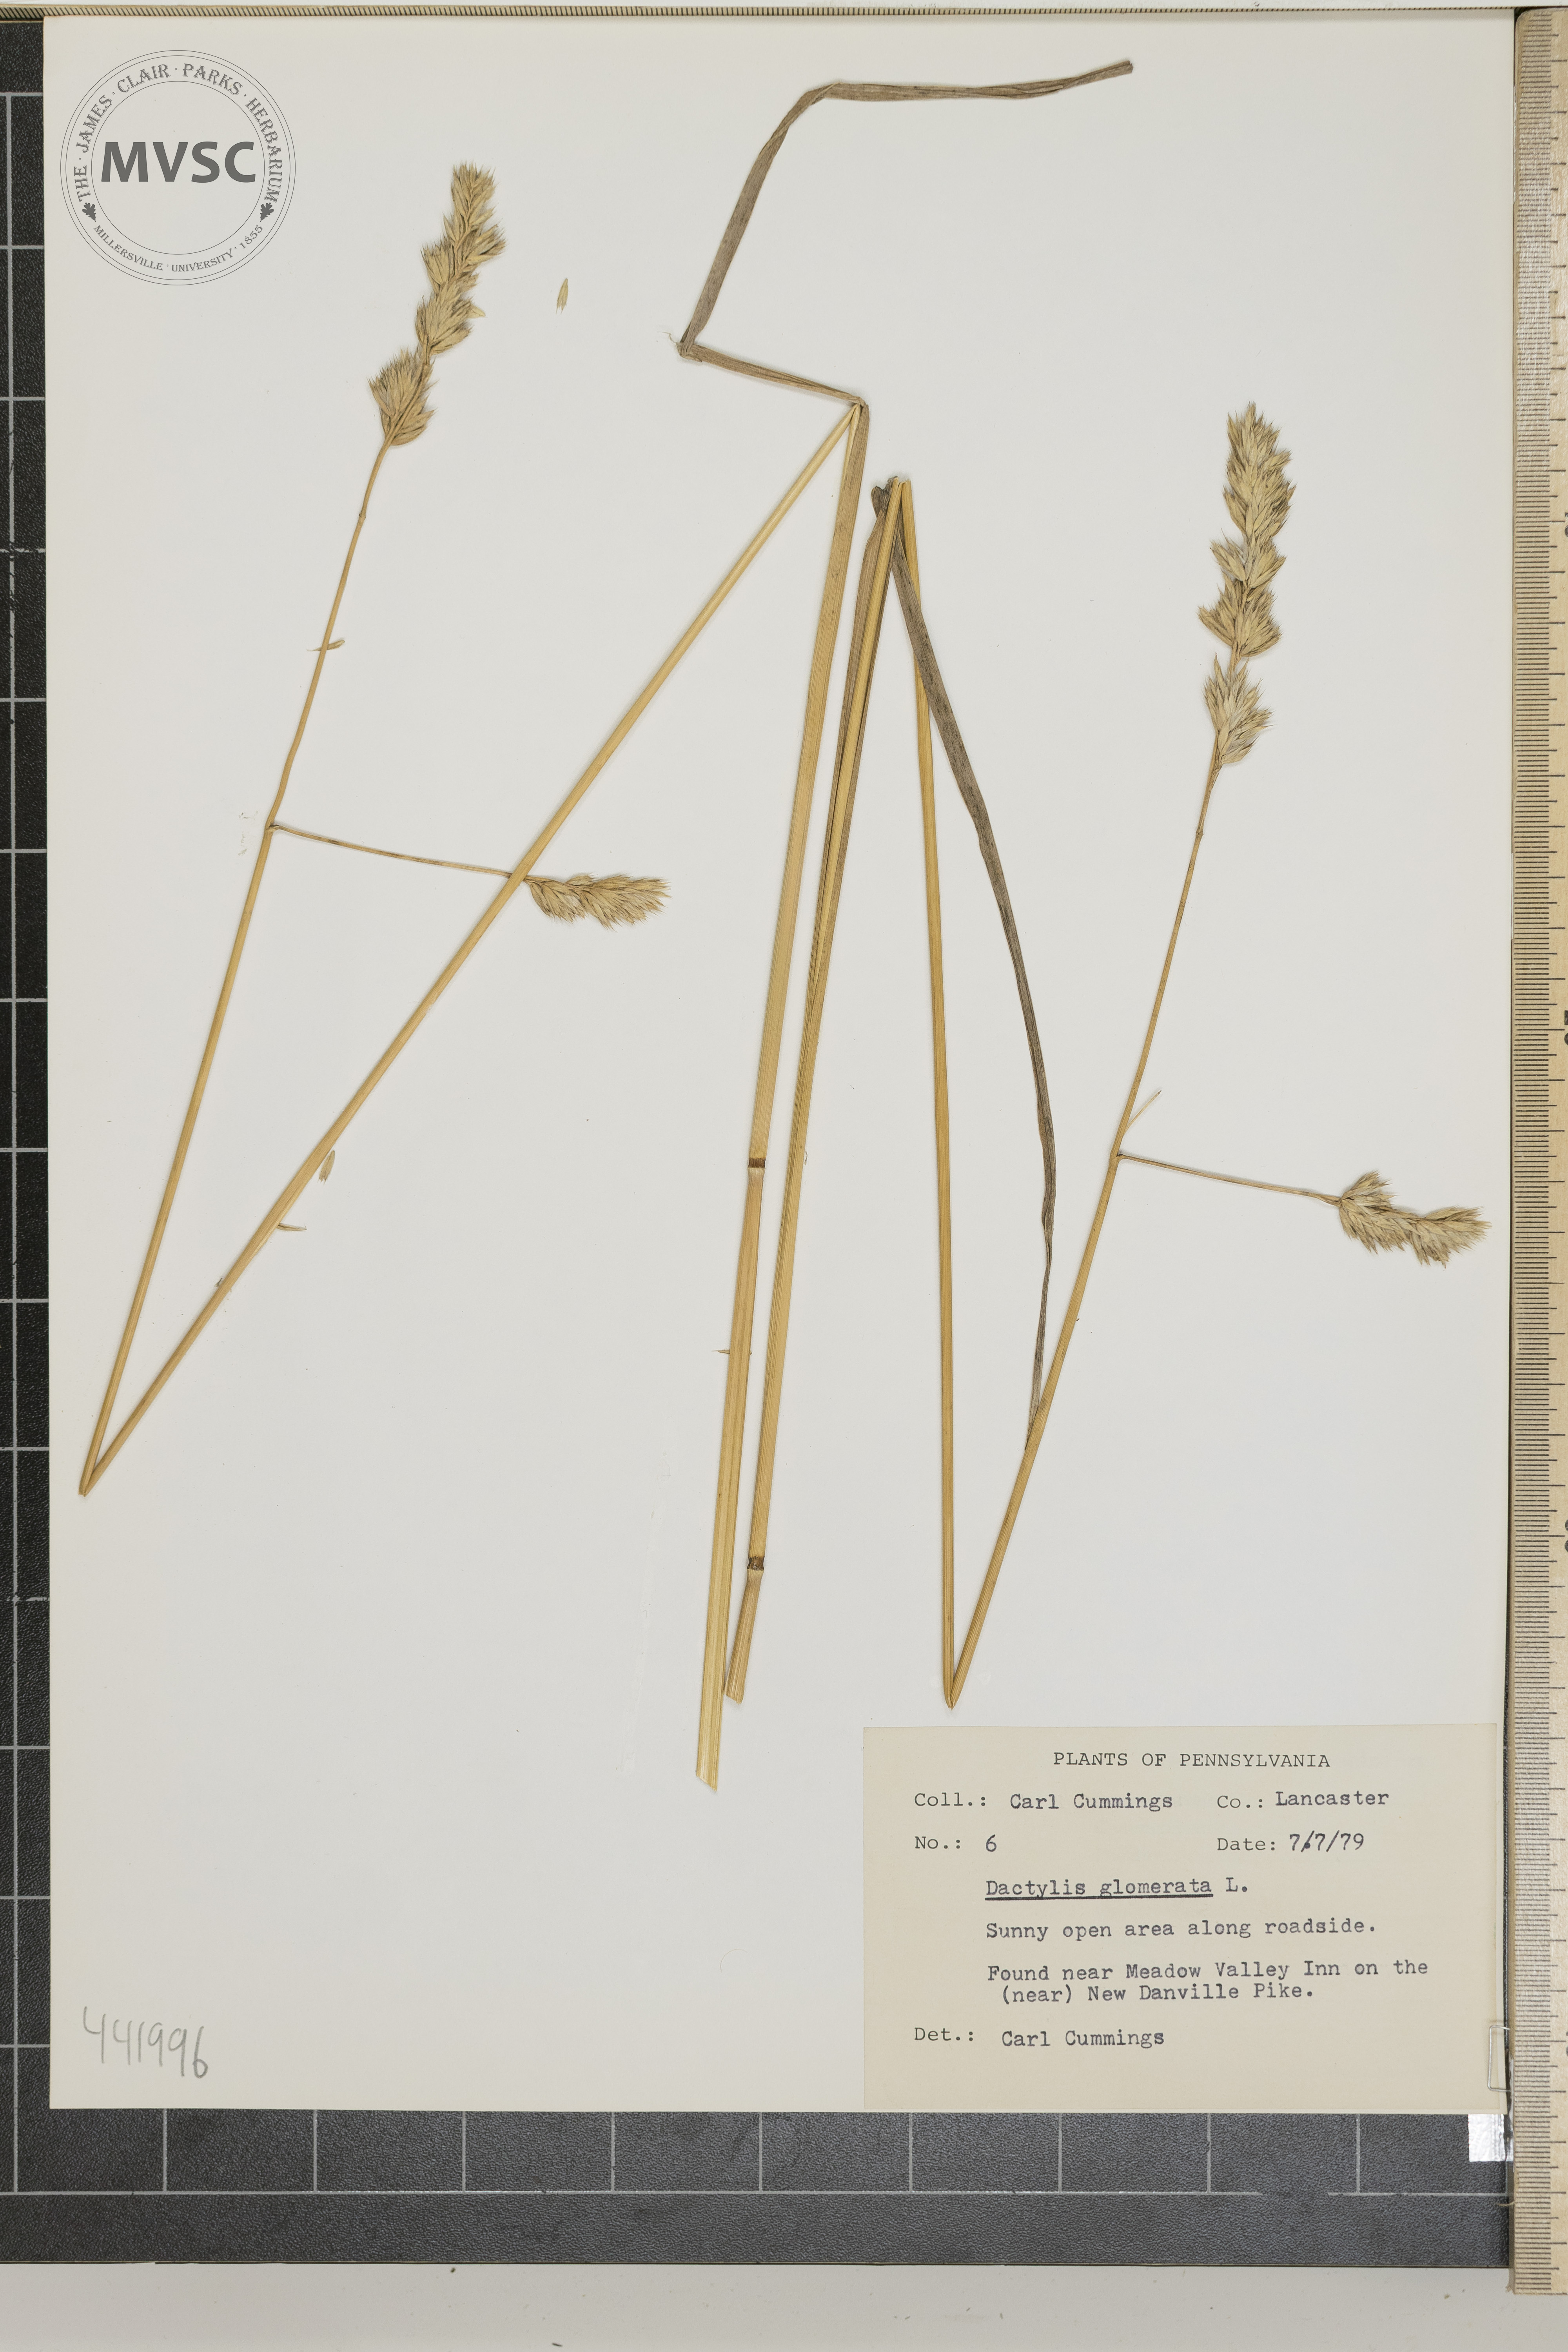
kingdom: Plantae
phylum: Tracheophyta
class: Liliopsida
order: Poales
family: Poaceae
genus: Dactylis
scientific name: Dactylis glomerata
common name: Orchardgrass
